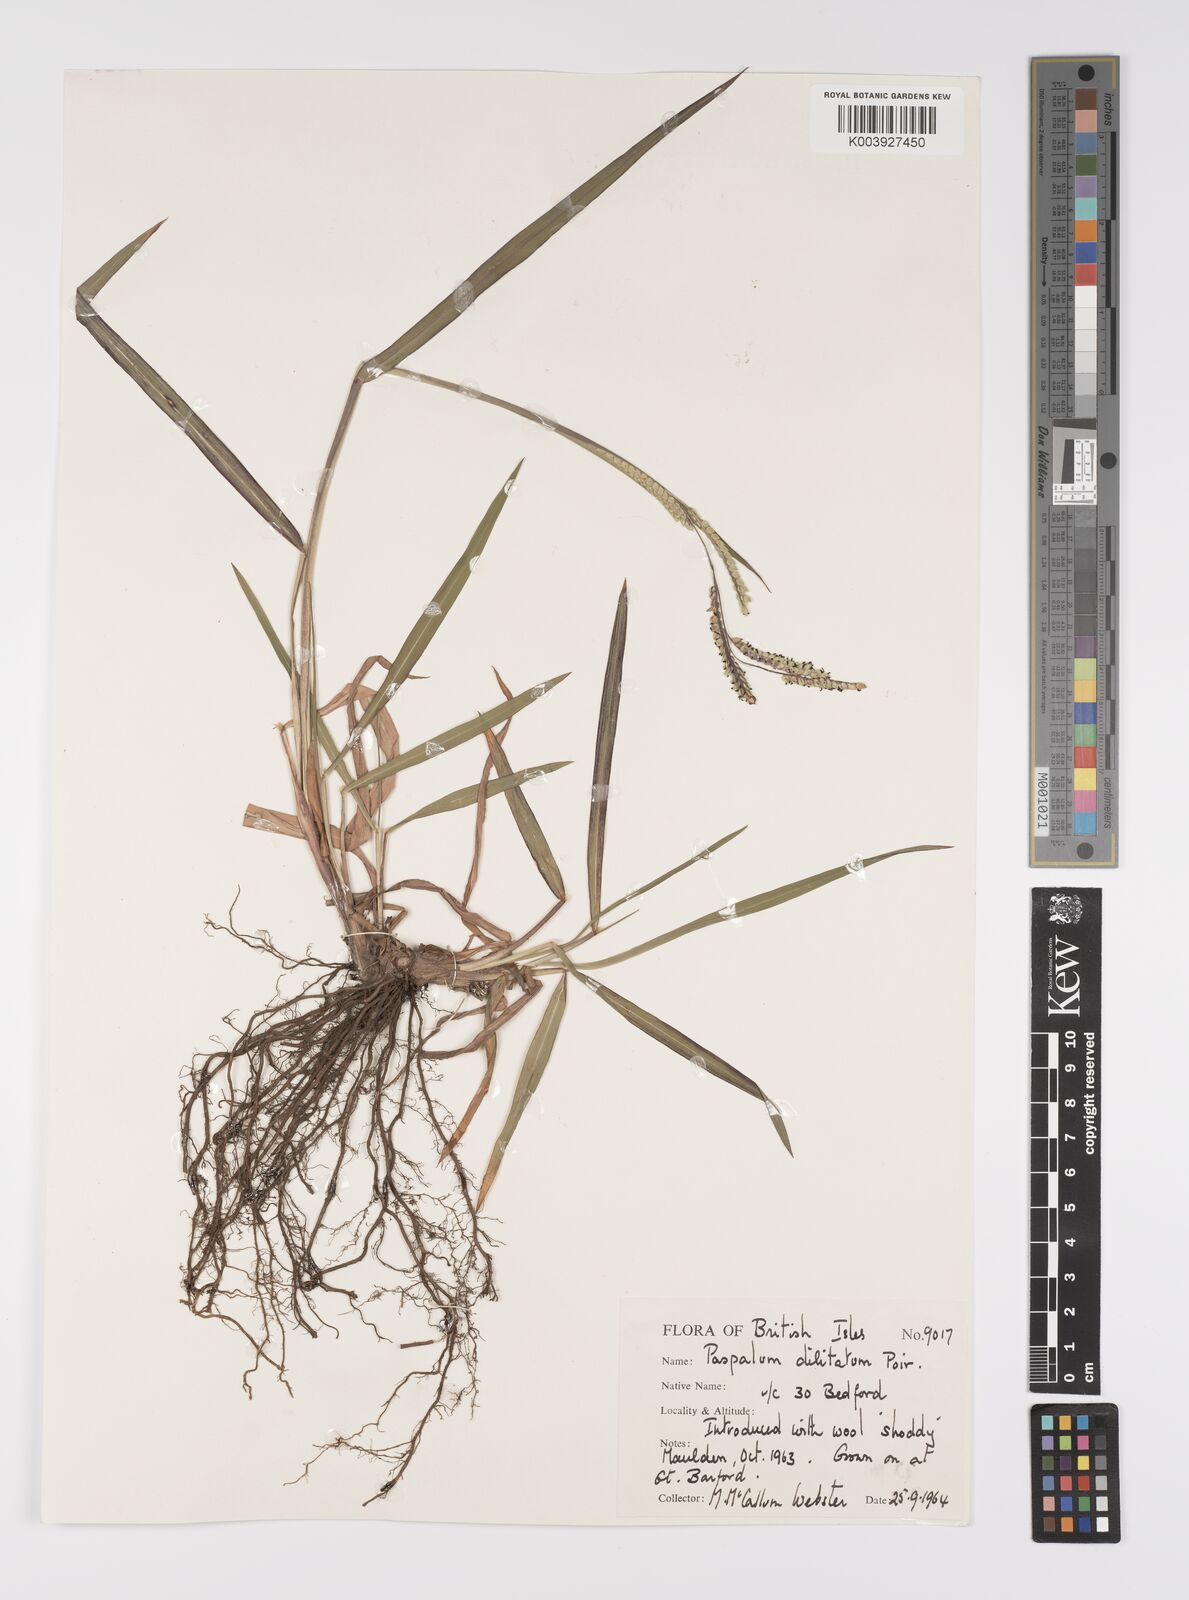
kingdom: Plantae
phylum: Tracheophyta
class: Liliopsida
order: Poales
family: Poaceae
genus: Paspalum
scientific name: Paspalum dilatatum
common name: Dallisgrass
